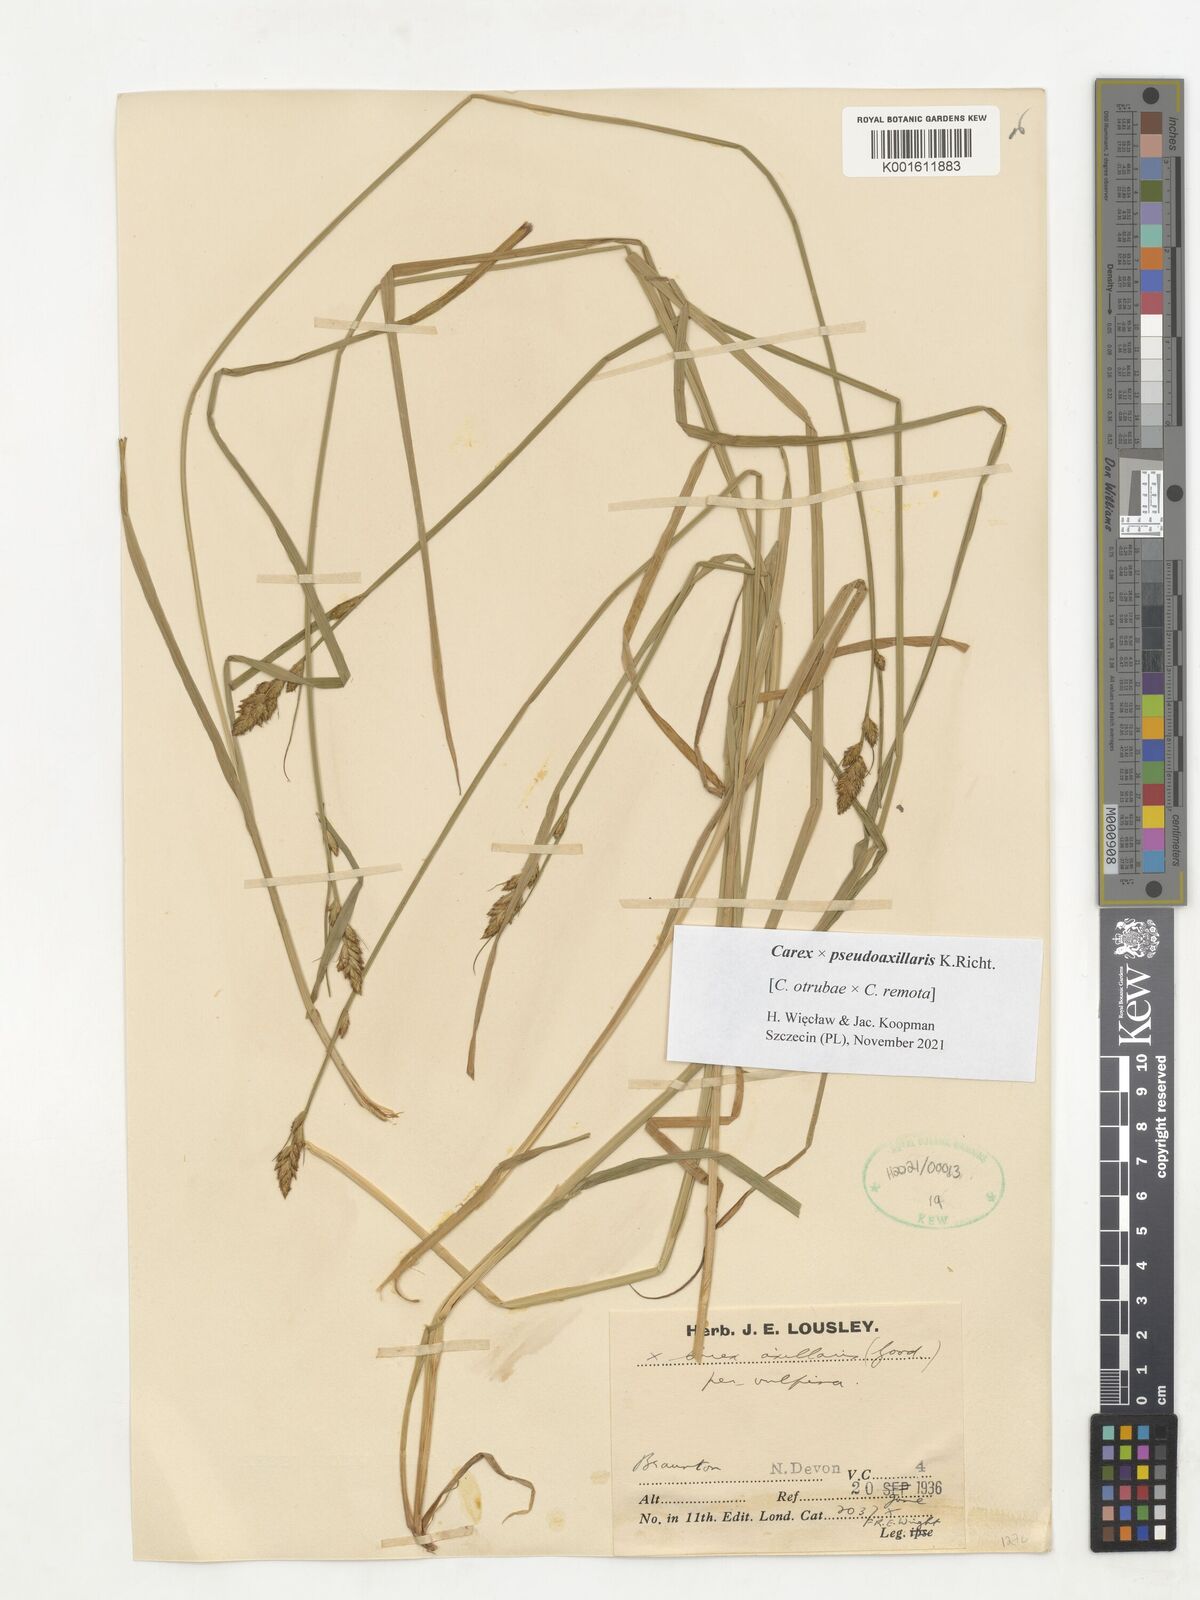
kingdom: Plantae
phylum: Tracheophyta
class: Liliopsida
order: Poales
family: Cyperaceae
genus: Carex
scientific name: Carex pseudoaxillaris
